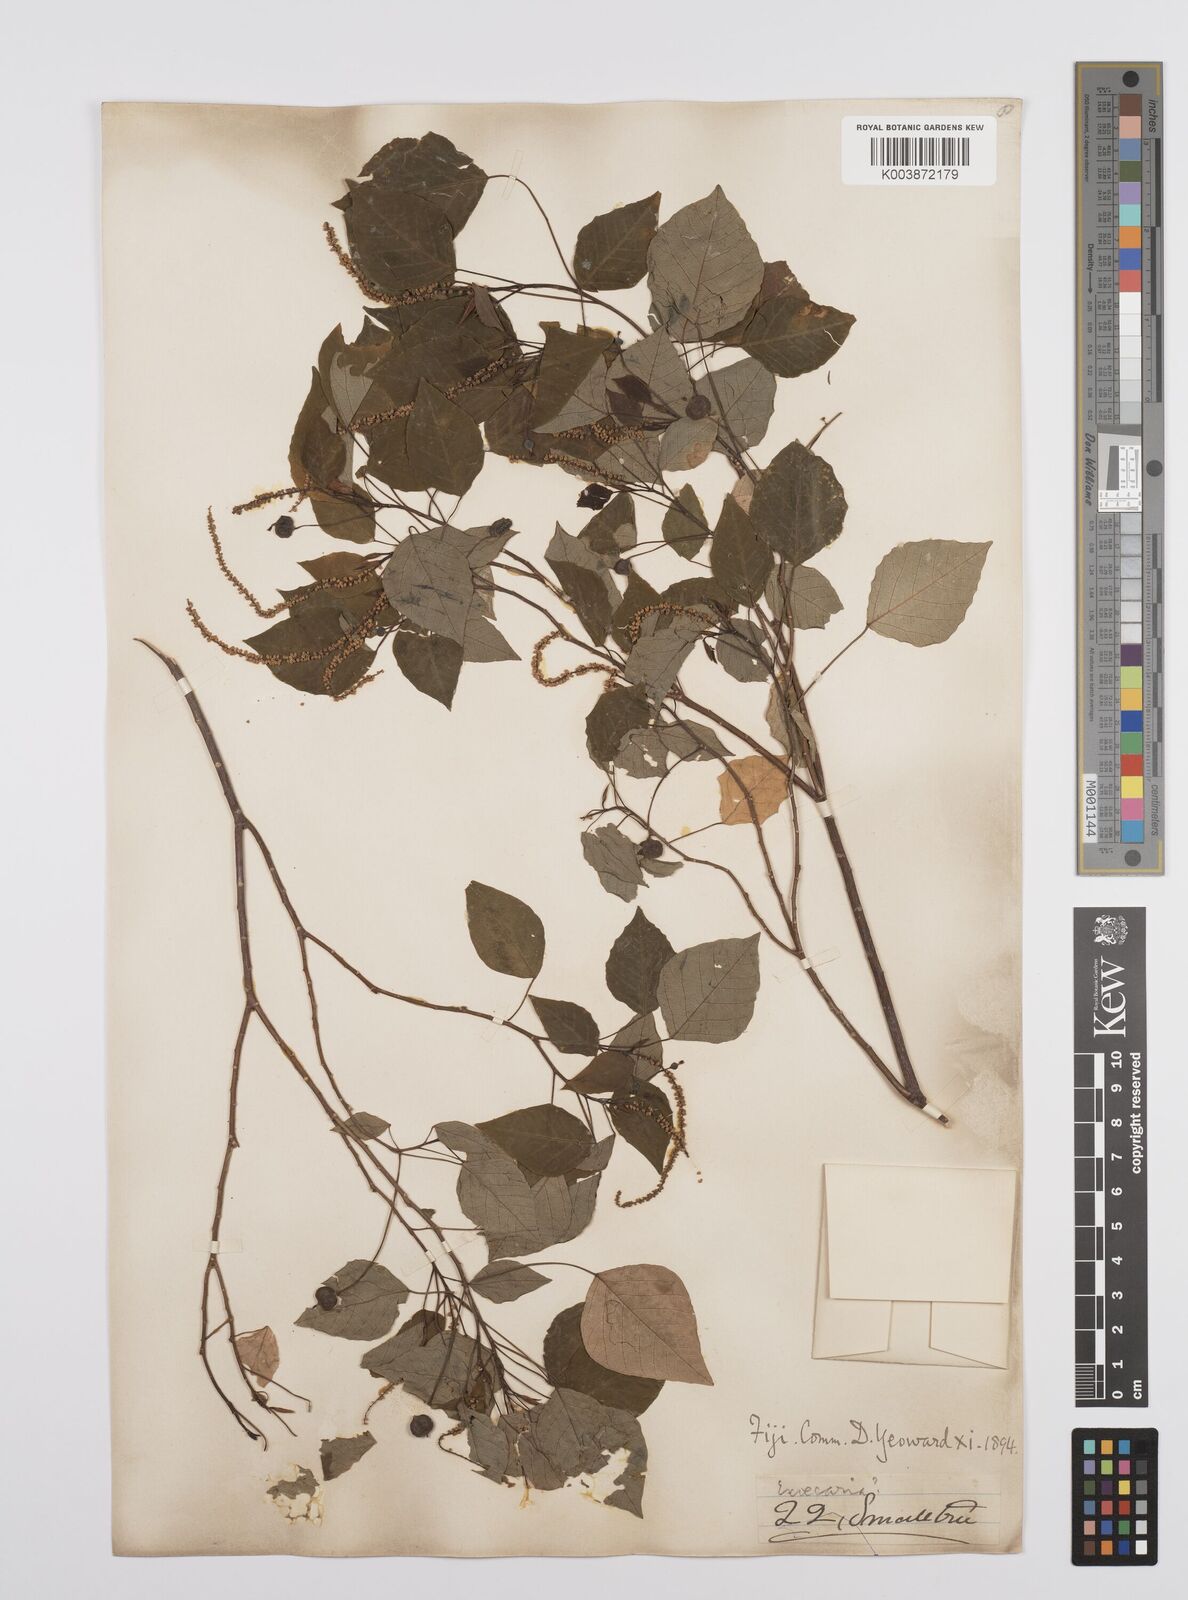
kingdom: Plantae
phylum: Tracheophyta
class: Magnoliopsida
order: Malpighiales
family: Euphorbiaceae
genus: Homalanthus
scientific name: Homalanthus nutans
